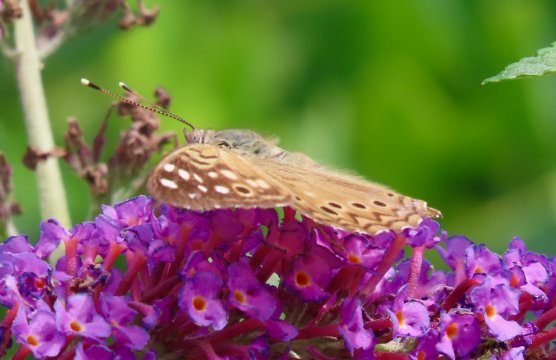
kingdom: Animalia
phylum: Arthropoda
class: Insecta
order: Lepidoptera
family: Nymphalidae
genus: Asterocampa
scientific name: Asterocampa celtis
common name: Hackberry Emperor
